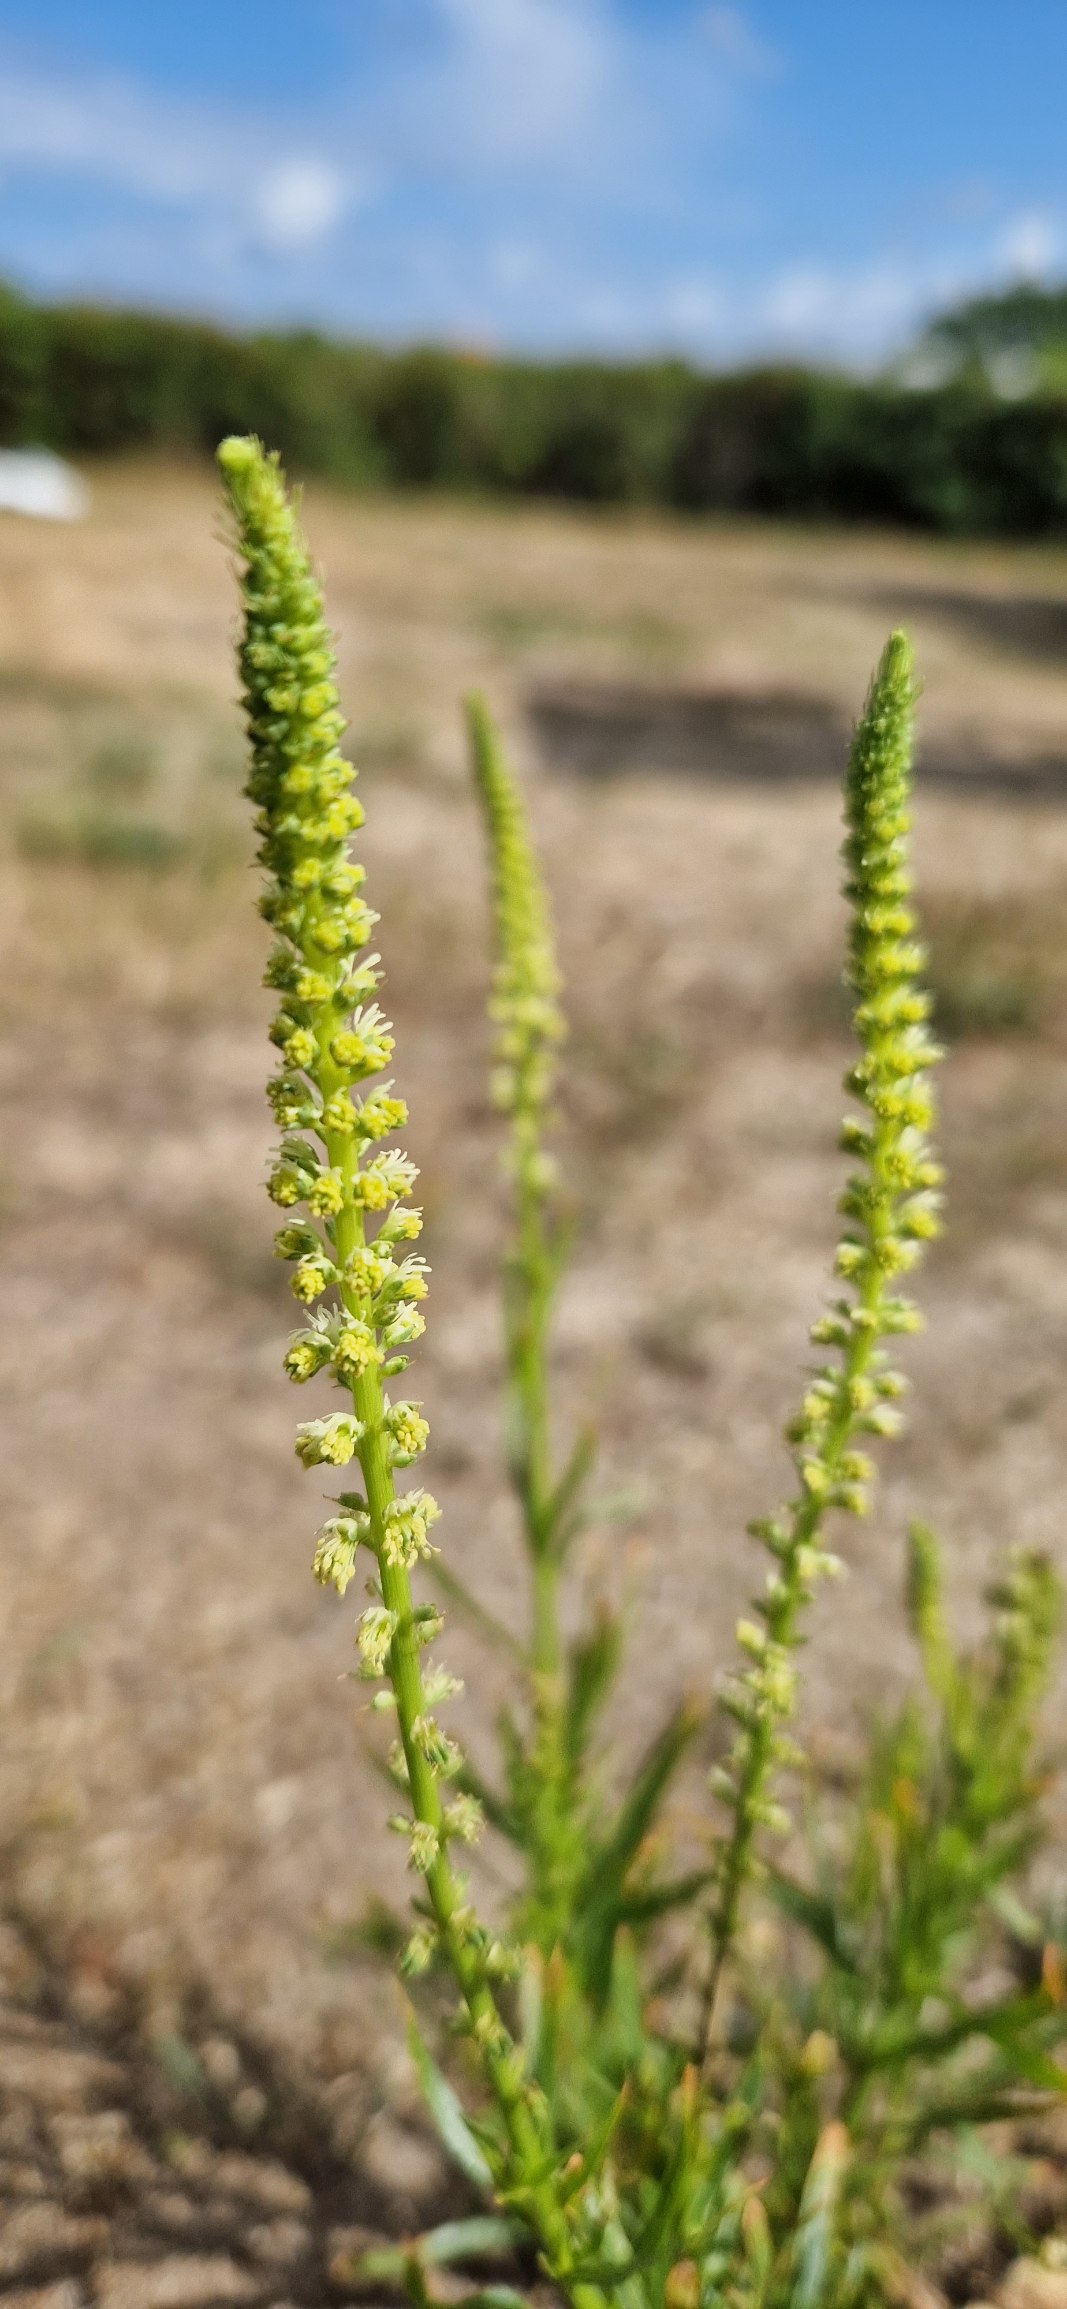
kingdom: Plantae
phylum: Tracheophyta
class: Magnoliopsida
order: Brassicales
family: Resedaceae
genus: Reseda
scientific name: Reseda luteola
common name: Farve-reseda
